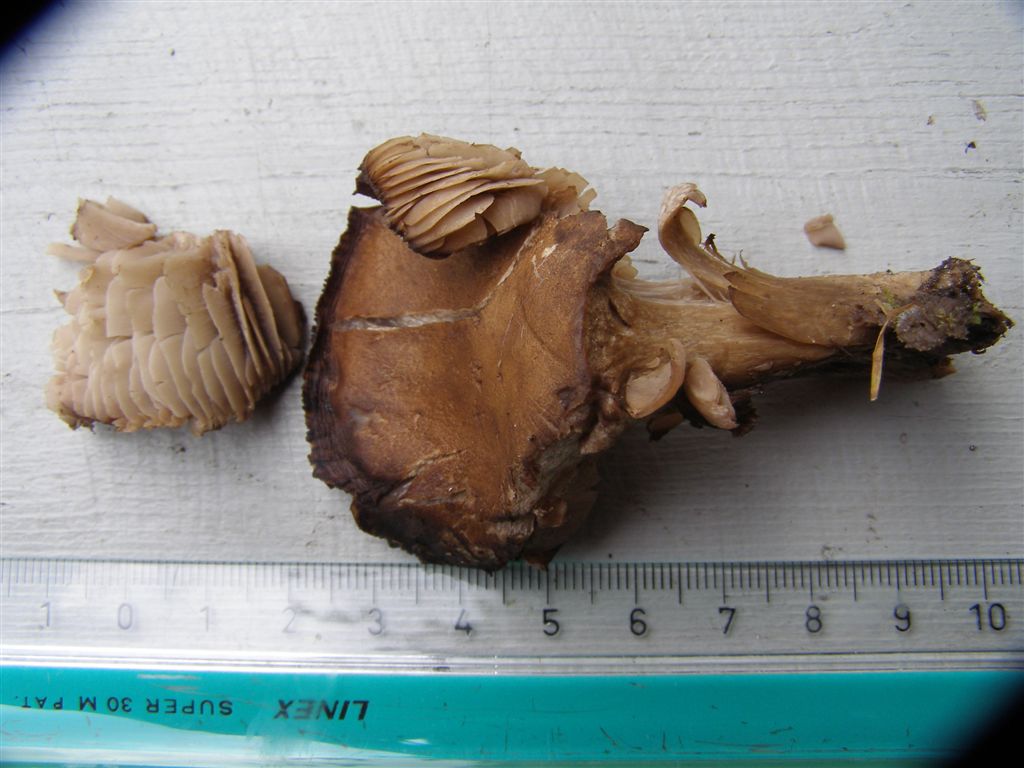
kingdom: Fungi
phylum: Basidiomycota
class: Agaricomycetes
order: Agaricales
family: Tricholomataceae
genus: Pseudotricholoma
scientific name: Pseudotricholoma metapodium
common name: rødmende alfehat
